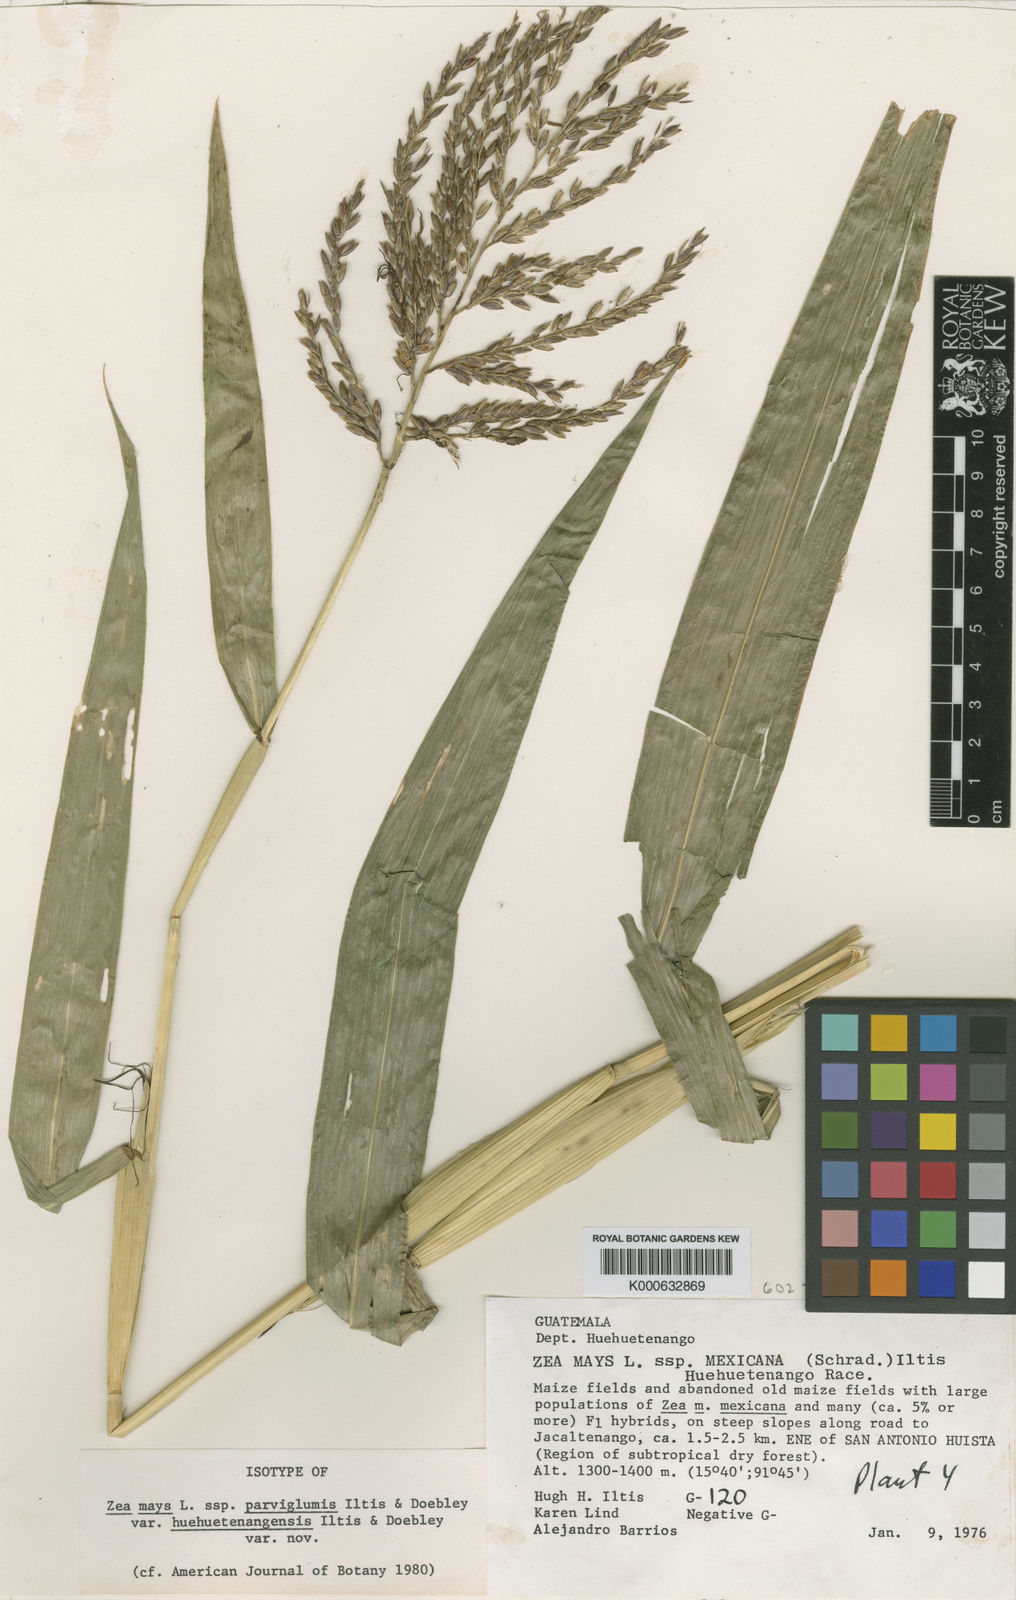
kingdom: Plantae
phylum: Tracheophyta
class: Liliopsida
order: Poales
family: Poaceae
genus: Zea
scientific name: Zea mays
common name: Maize
